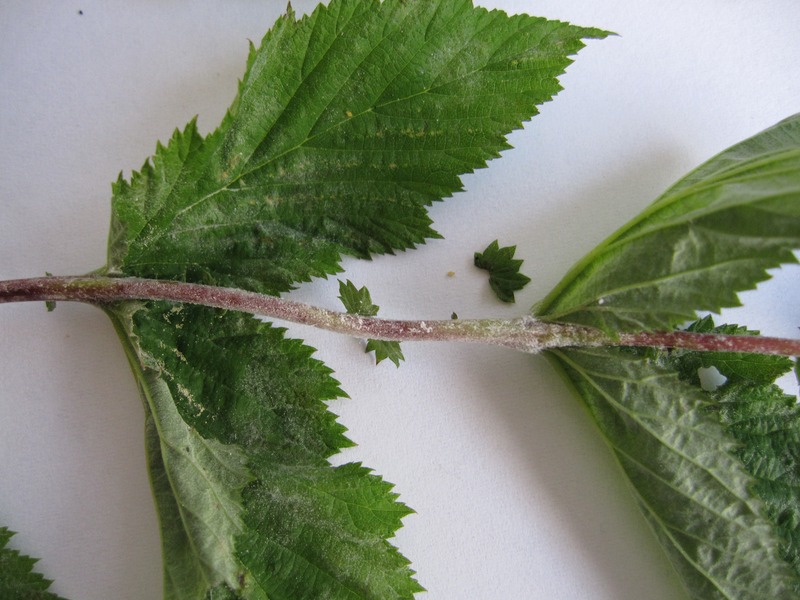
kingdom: Fungi
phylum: Ascomycota
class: Leotiomycetes
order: Helotiales
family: Erysiphaceae
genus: Podosphaera
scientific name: Podosphaera spiraeae
